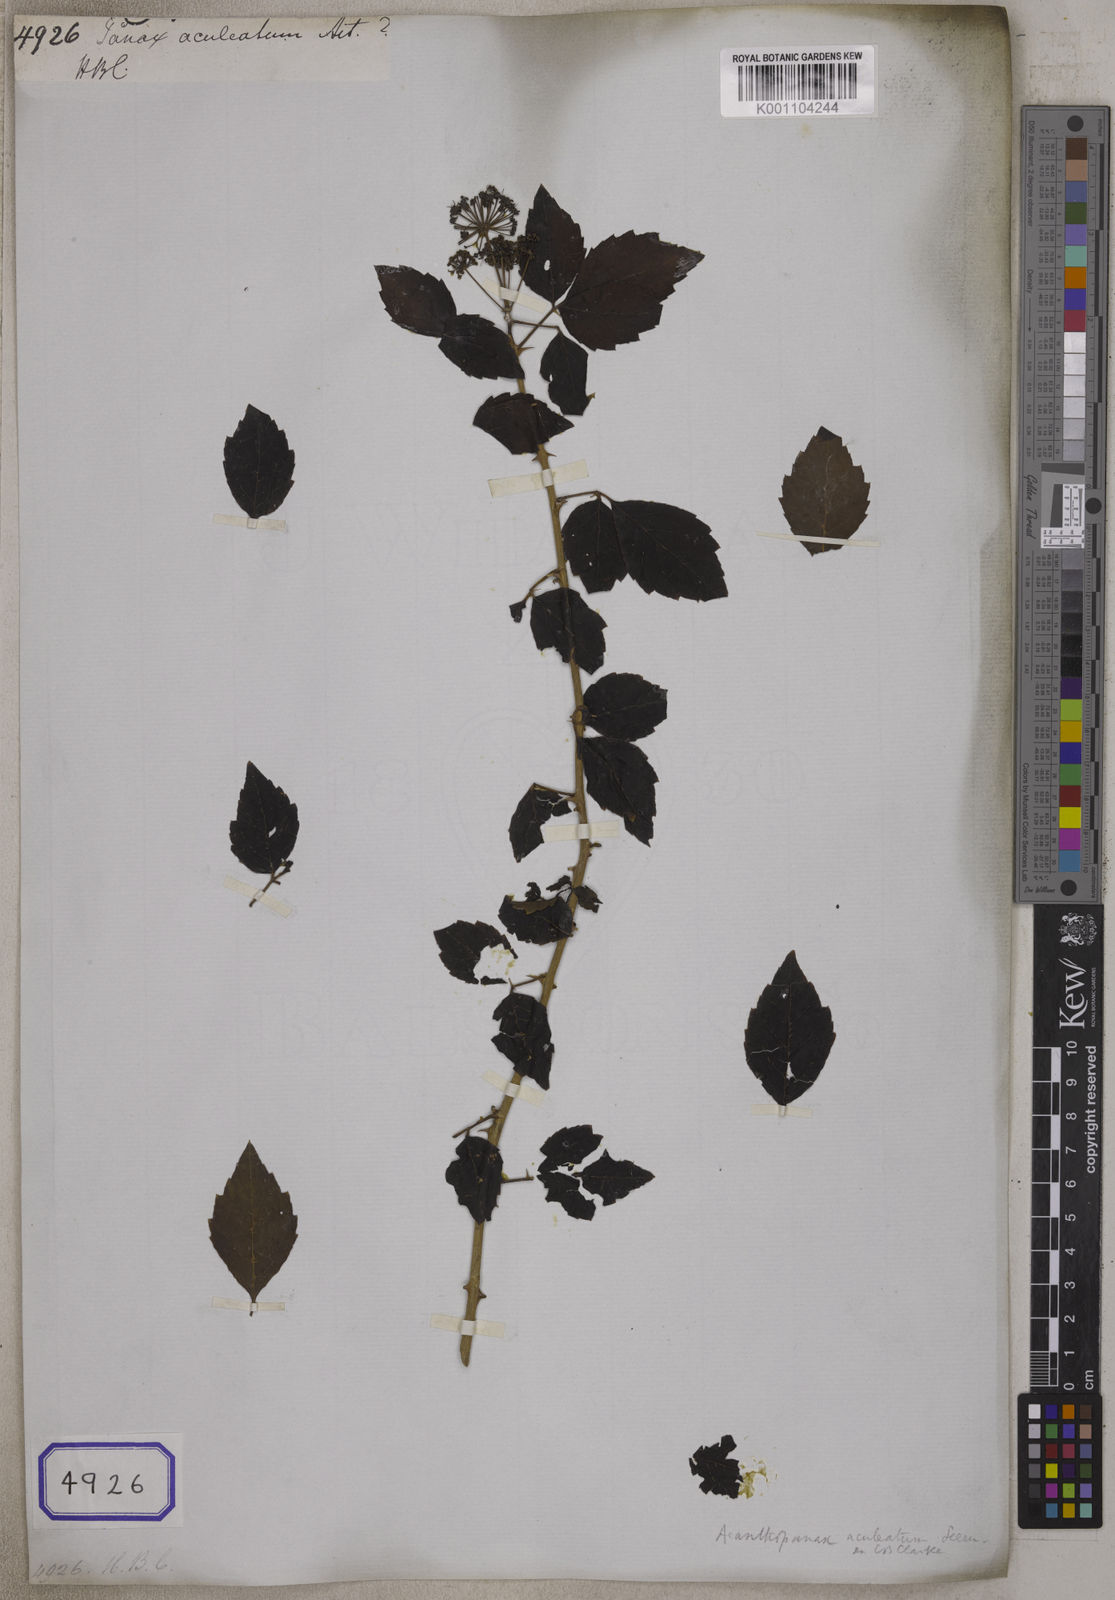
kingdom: Plantae
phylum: Tracheophyta
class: Magnoliopsida
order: Apiales
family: Araliaceae
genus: Eleutherococcus
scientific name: Eleutherococcus trifoliatus
